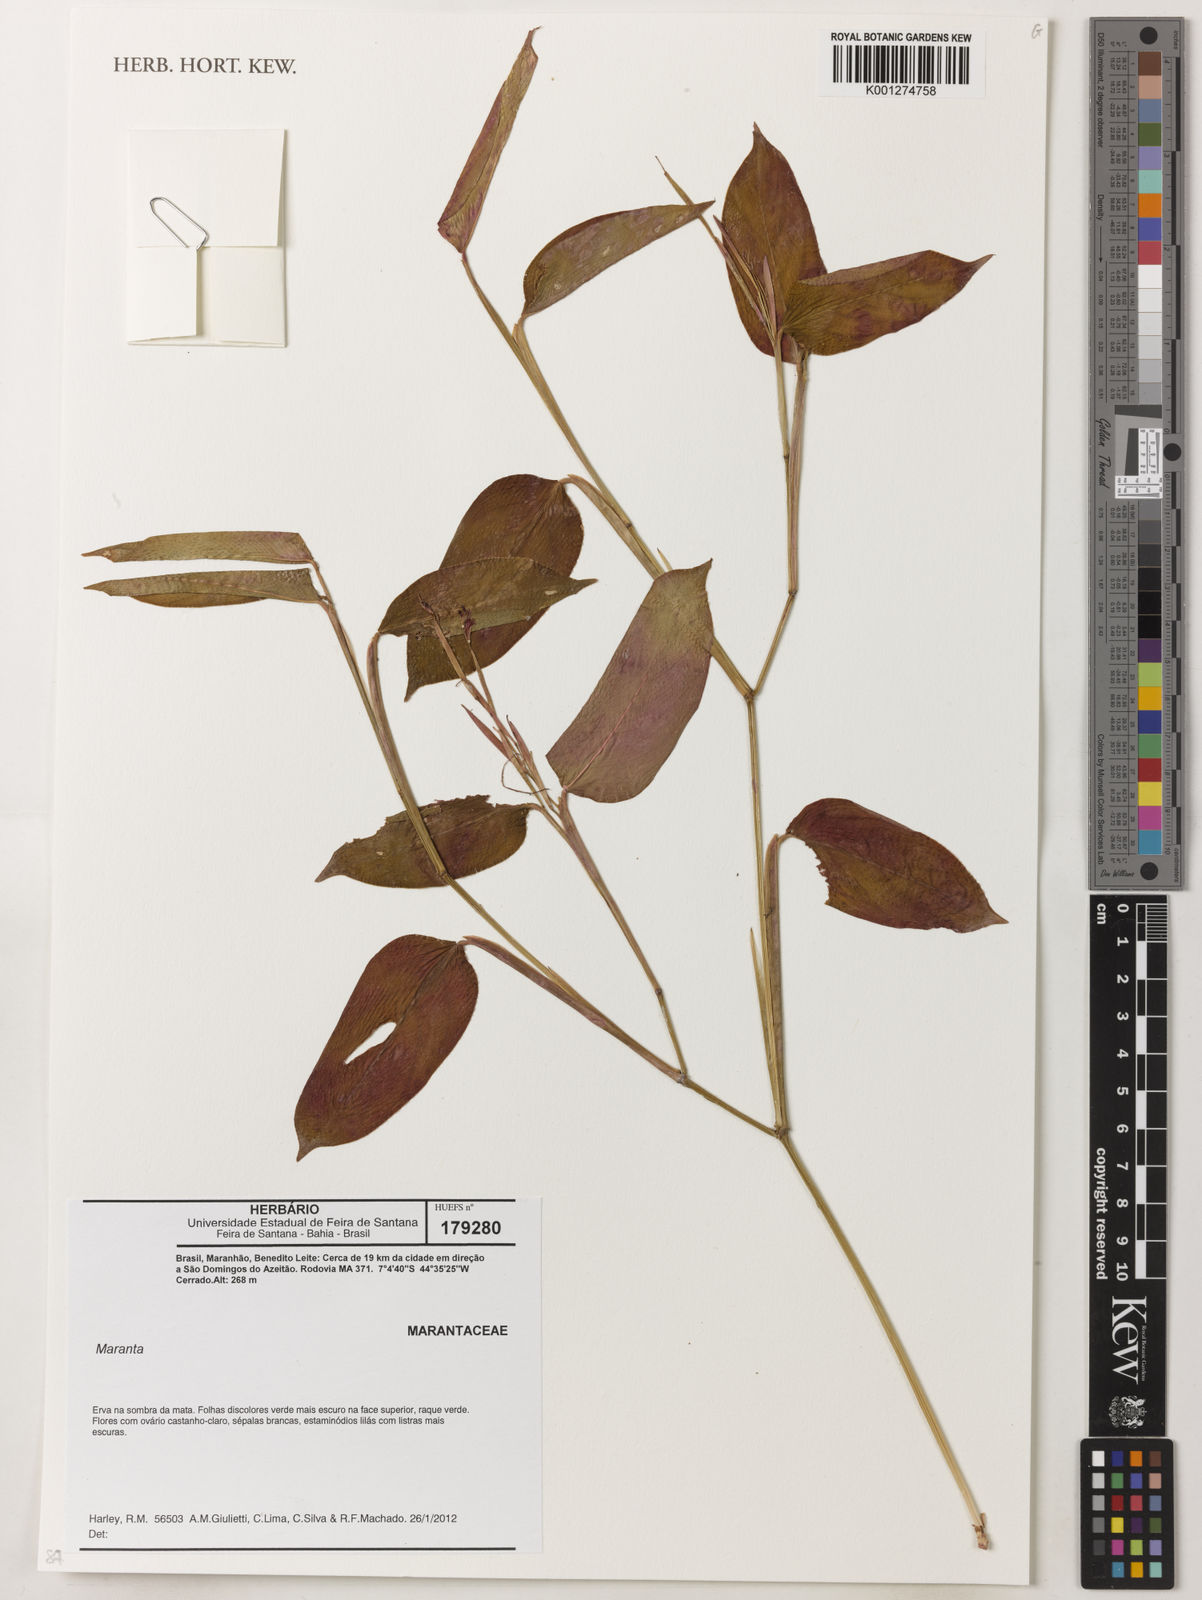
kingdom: Plantae
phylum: Tracheophyta
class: Liliopsida
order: Zingiberales
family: Marantaceae
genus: Maranta
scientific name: Maranta
